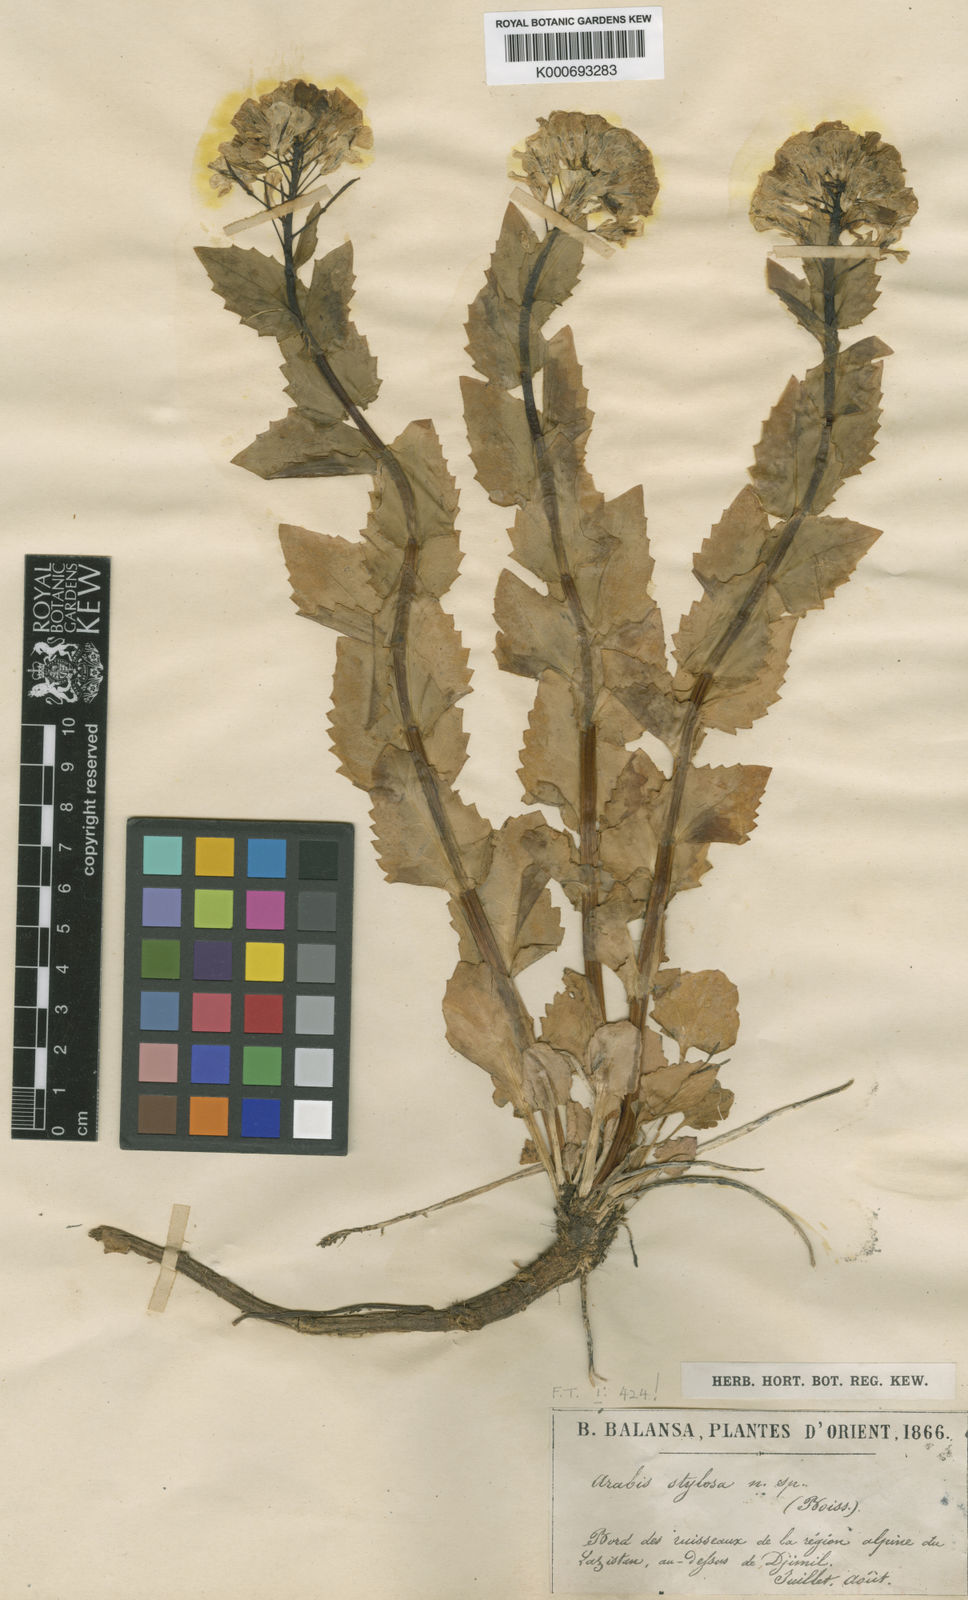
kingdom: Plantae
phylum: Tracheophyta
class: Magnoliopsida
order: Brassicales
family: Brassicaceae
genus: Arabis
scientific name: Arabis brachycarpa
